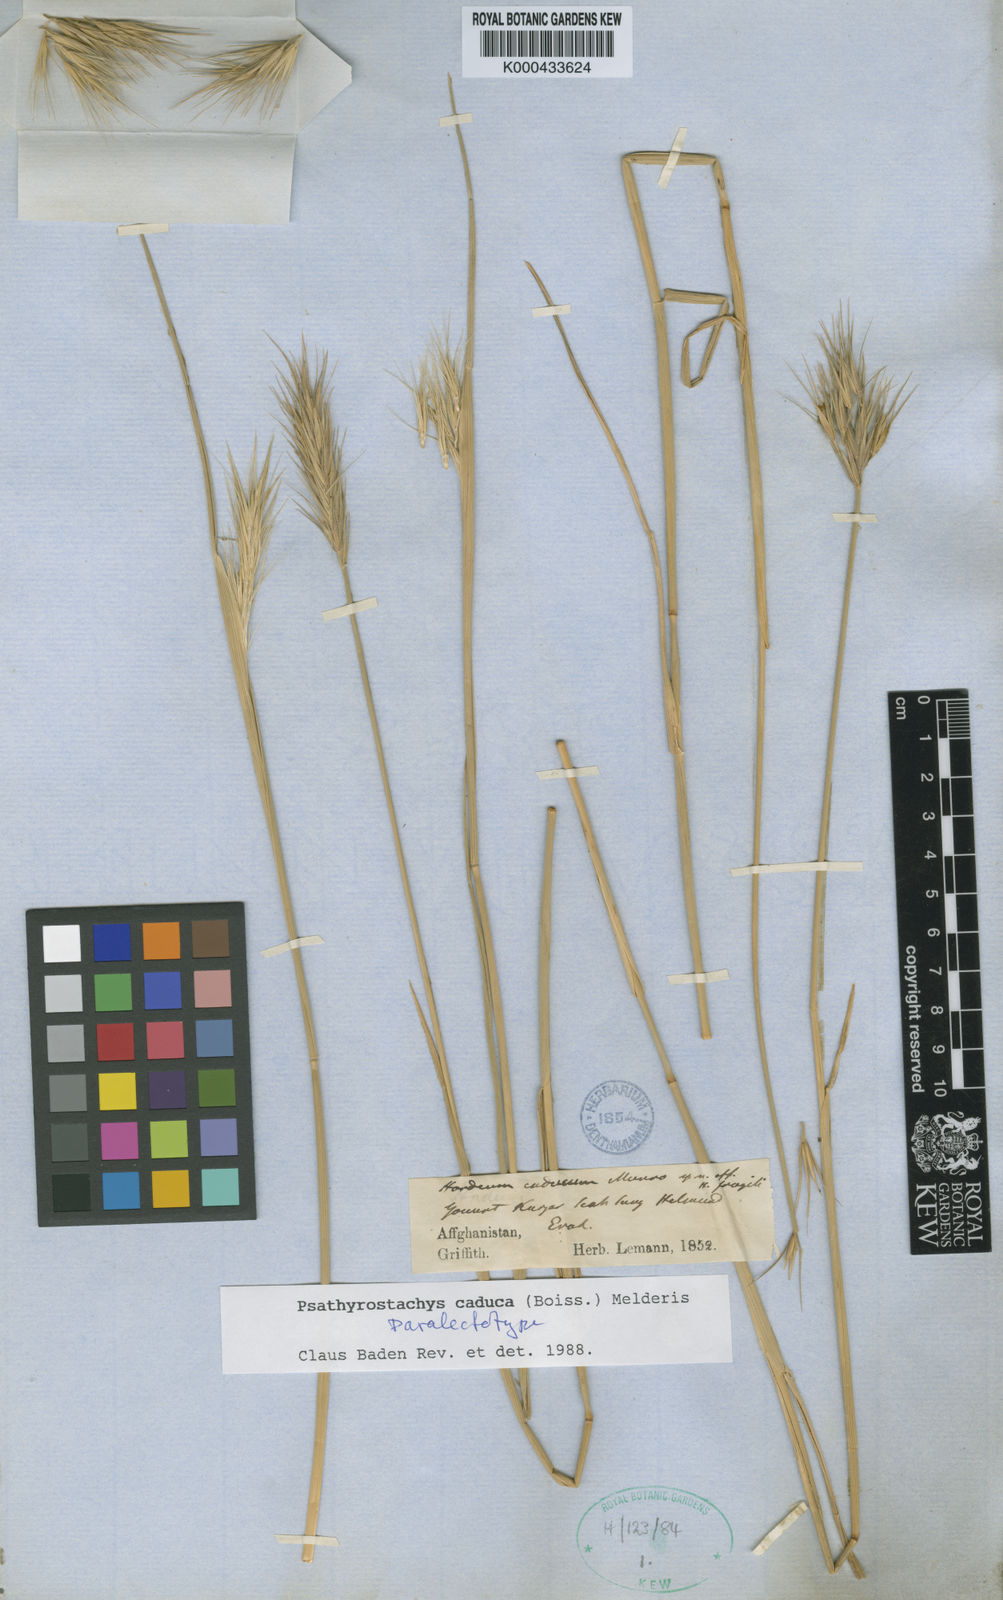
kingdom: Plantae
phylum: Tracheophyta
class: Liliopsida
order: Poales
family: Poaceae
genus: Psathyrostachys
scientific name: Psathyrostachys caduca
